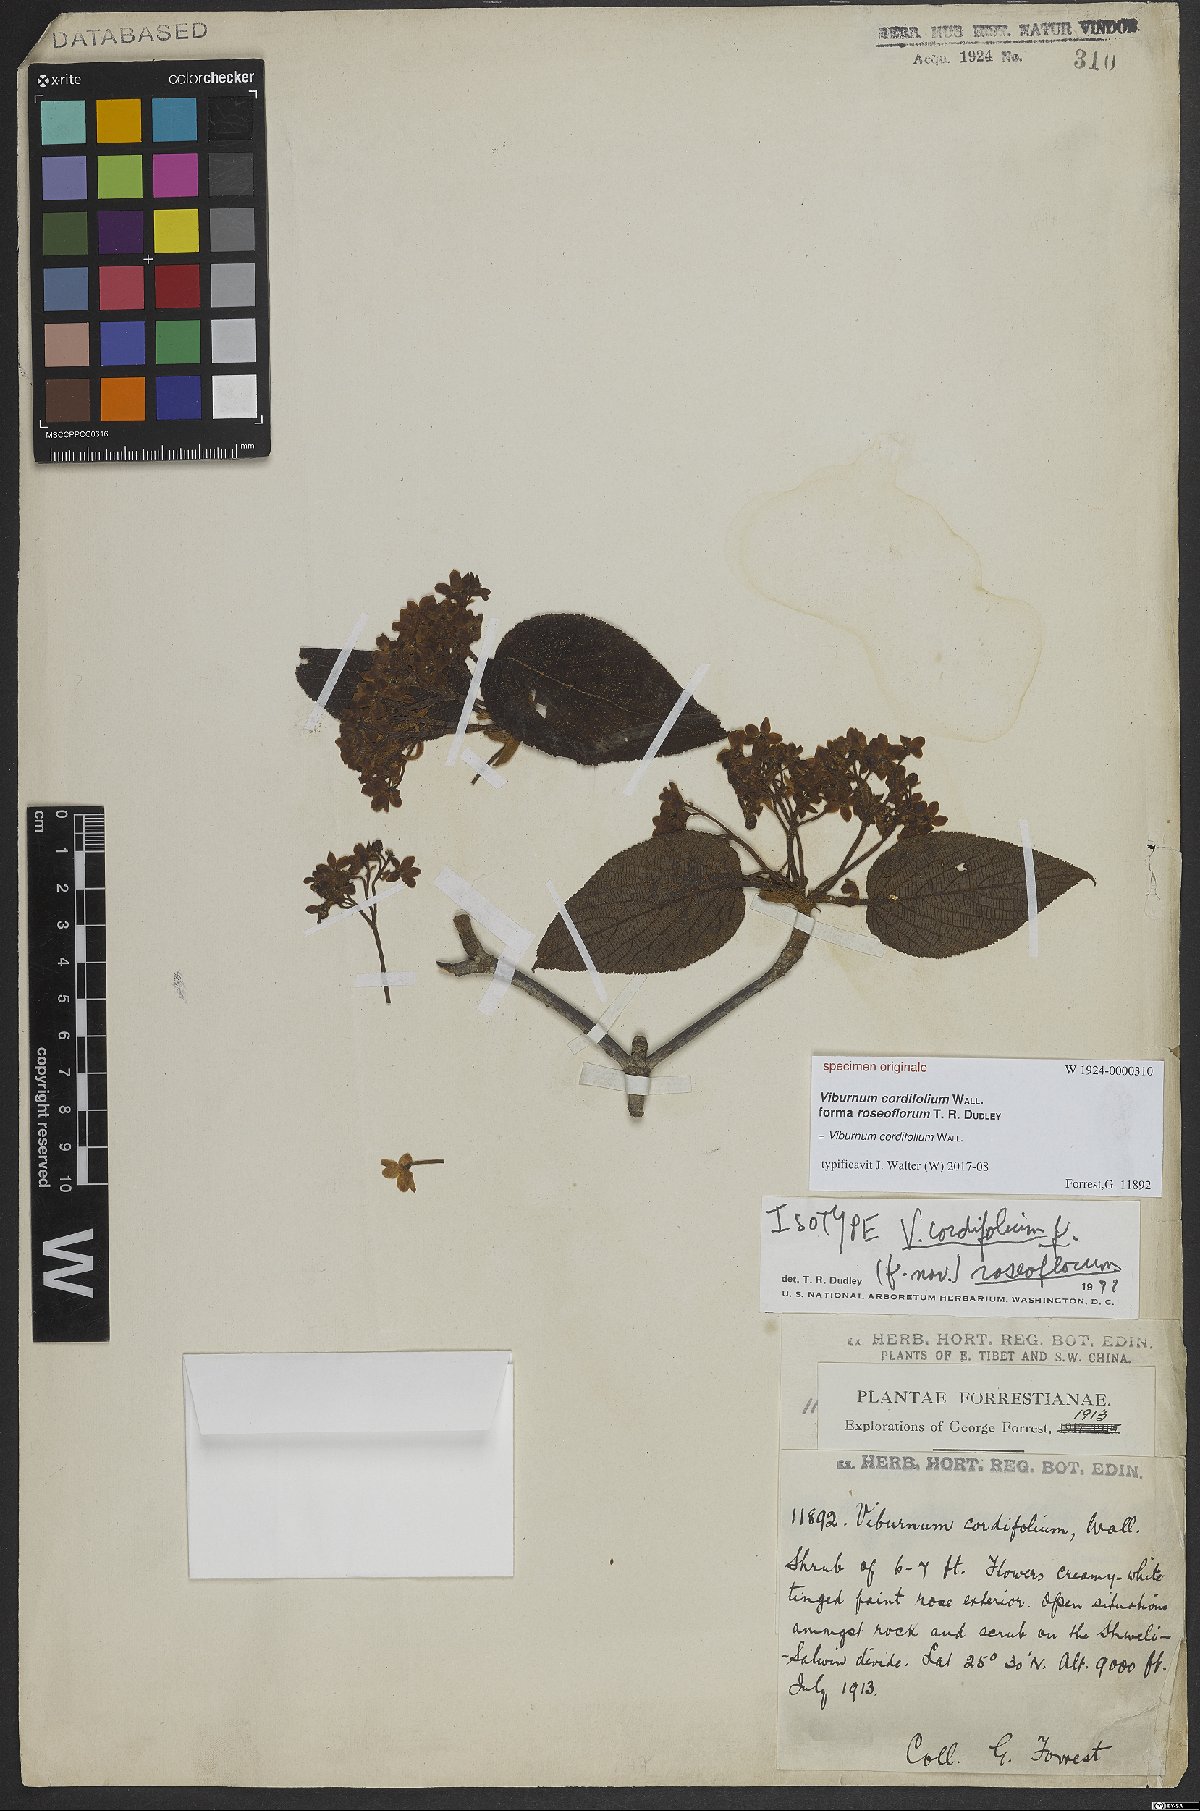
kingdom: Plantae
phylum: Tracheophyta
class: Magnoliopsida
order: Dipsacales
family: Viburnaceae
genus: Viburnum
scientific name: Viburnum nervosum
